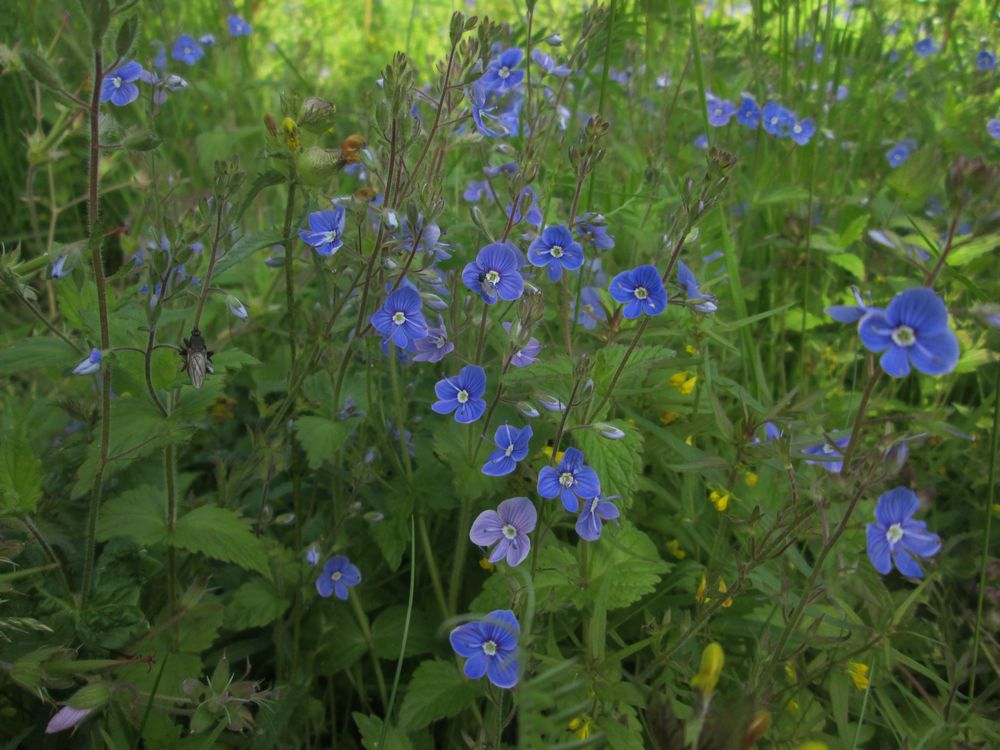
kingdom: Plantae
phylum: Tracheophyta
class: Magnoliopsida
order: Lamiales
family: Plantaginaceae
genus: Veronica
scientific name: Veronica chamaedrys
